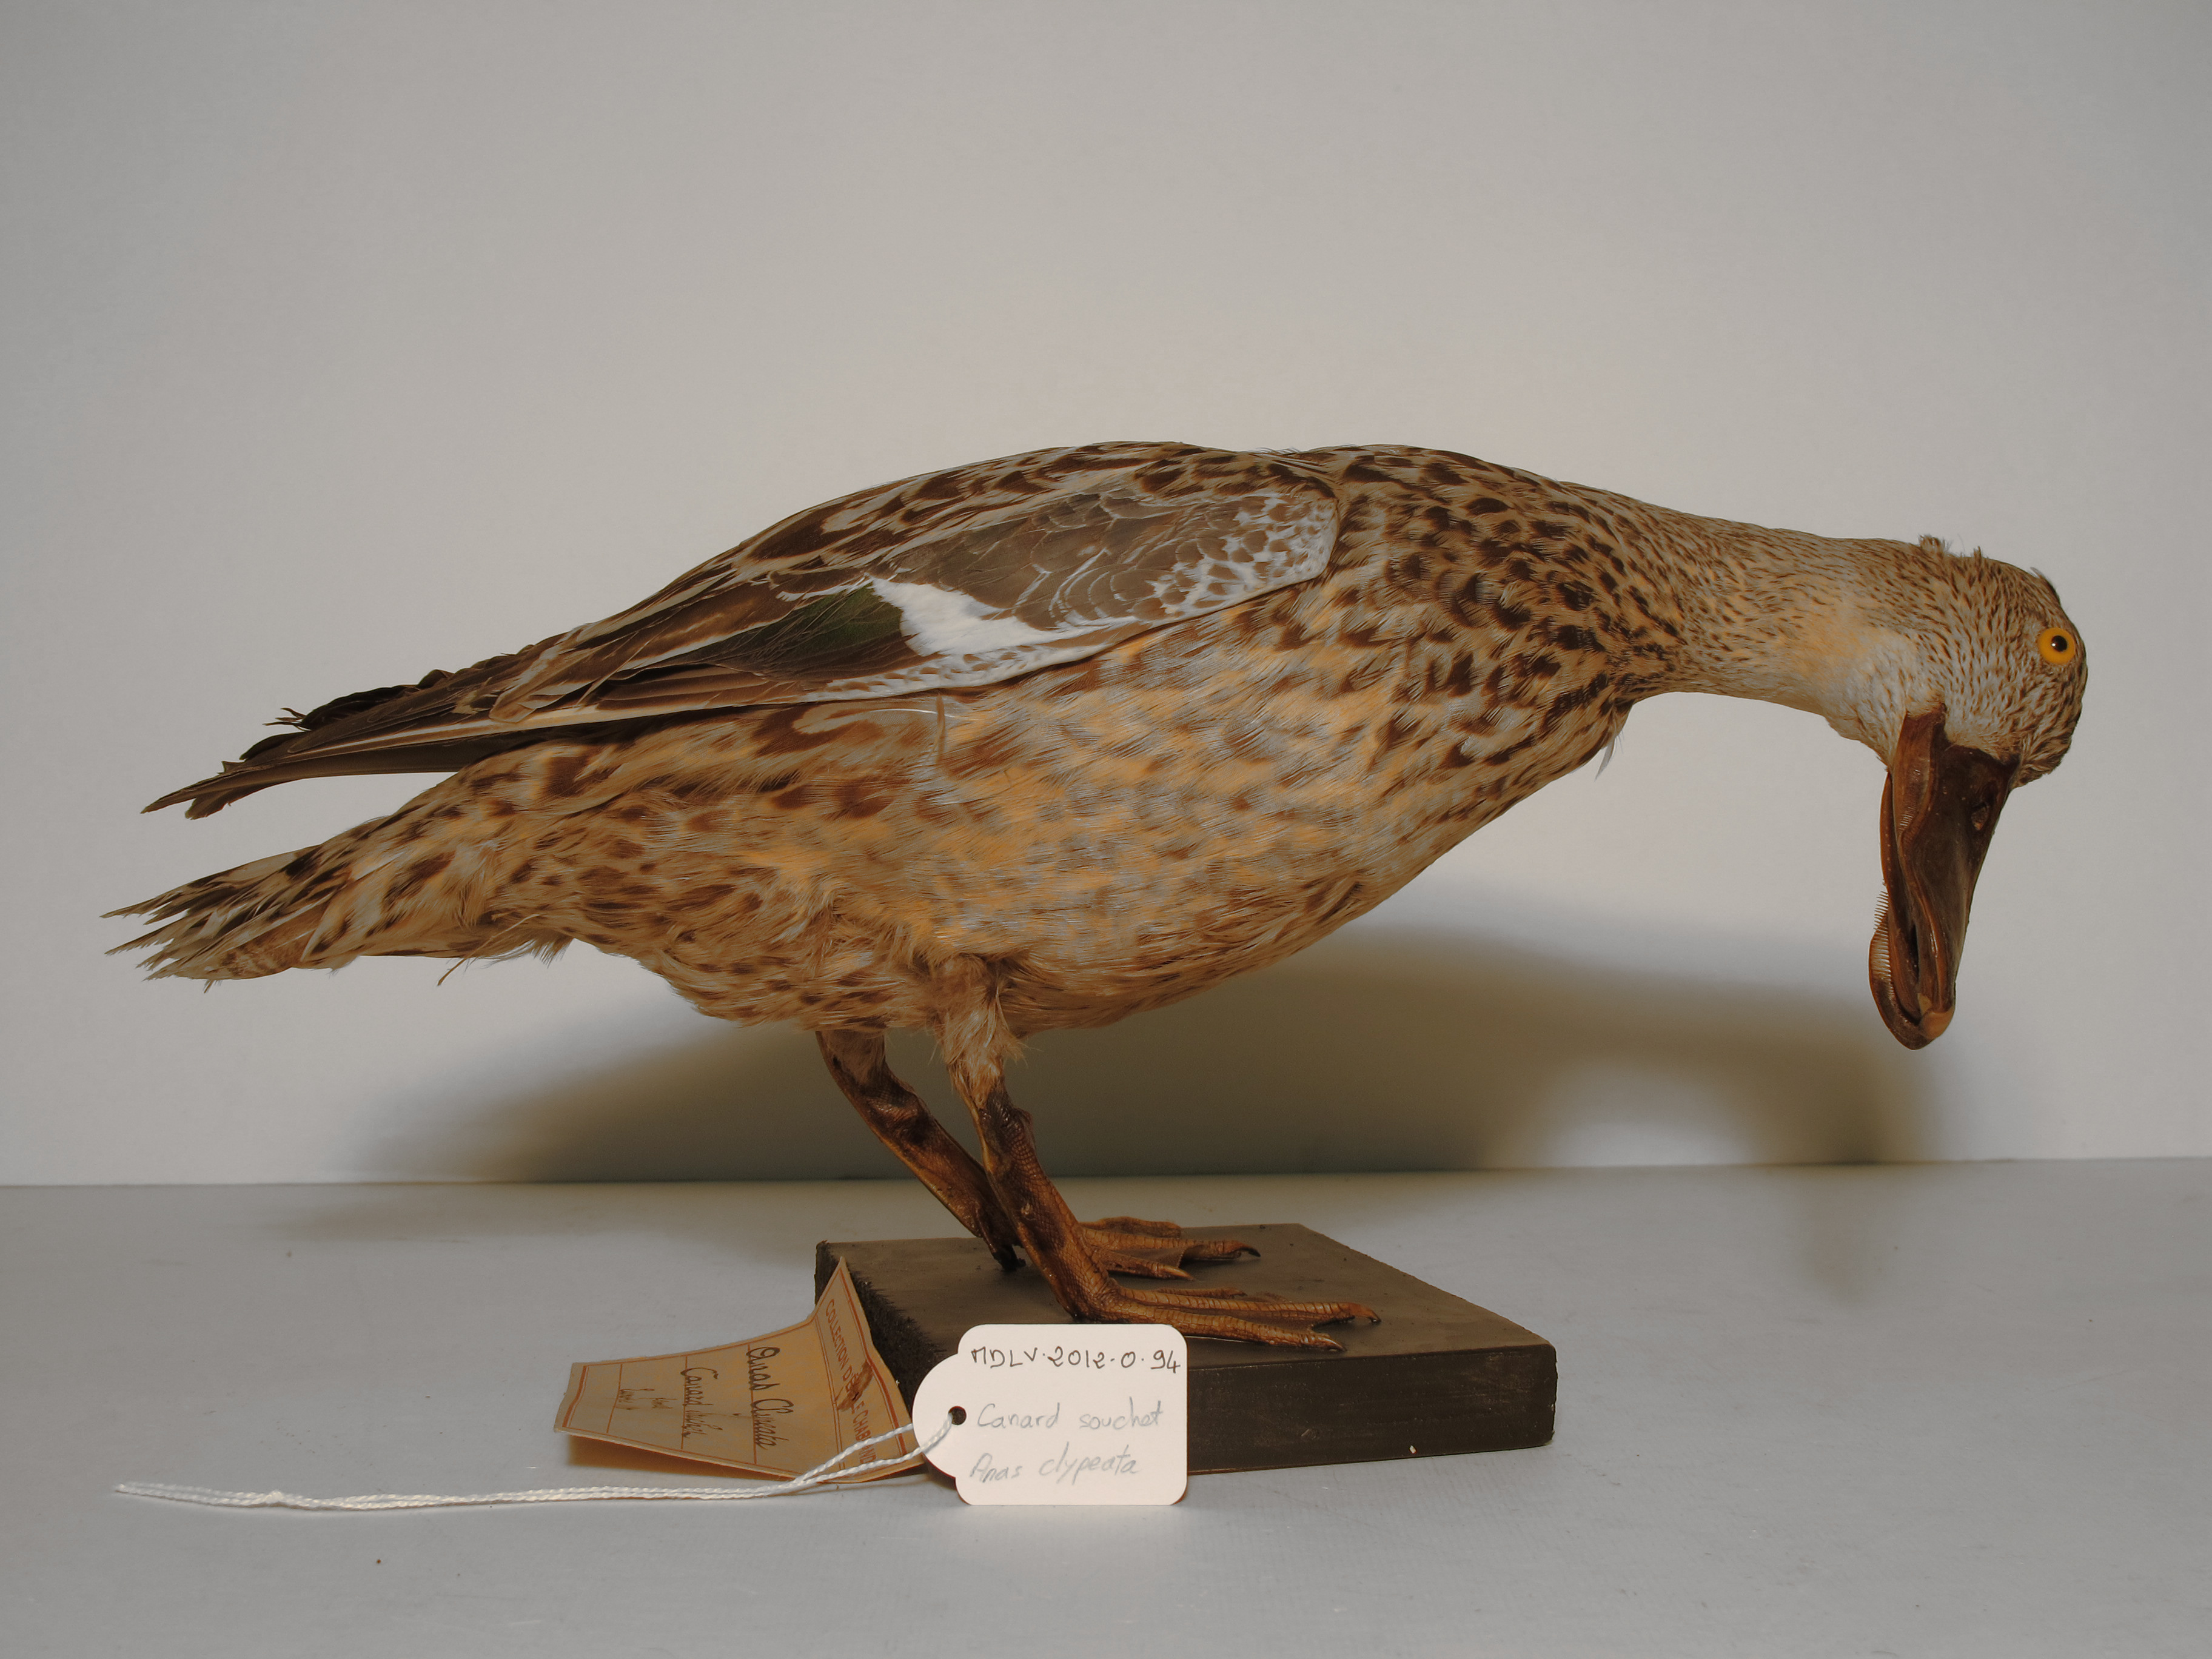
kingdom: Animalia
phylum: Chordata
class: Aves
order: Anseriformes
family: Anatidae
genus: Spatula
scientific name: Spatula clypeata
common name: Northern Shoveler
